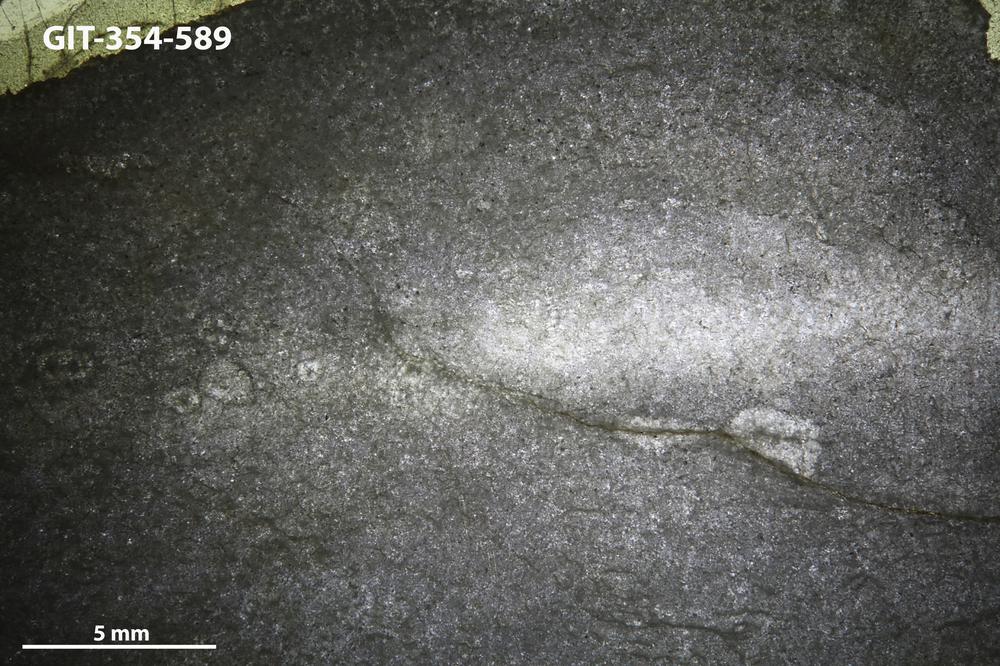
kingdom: Animalia
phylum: Porifera
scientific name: Porifera
